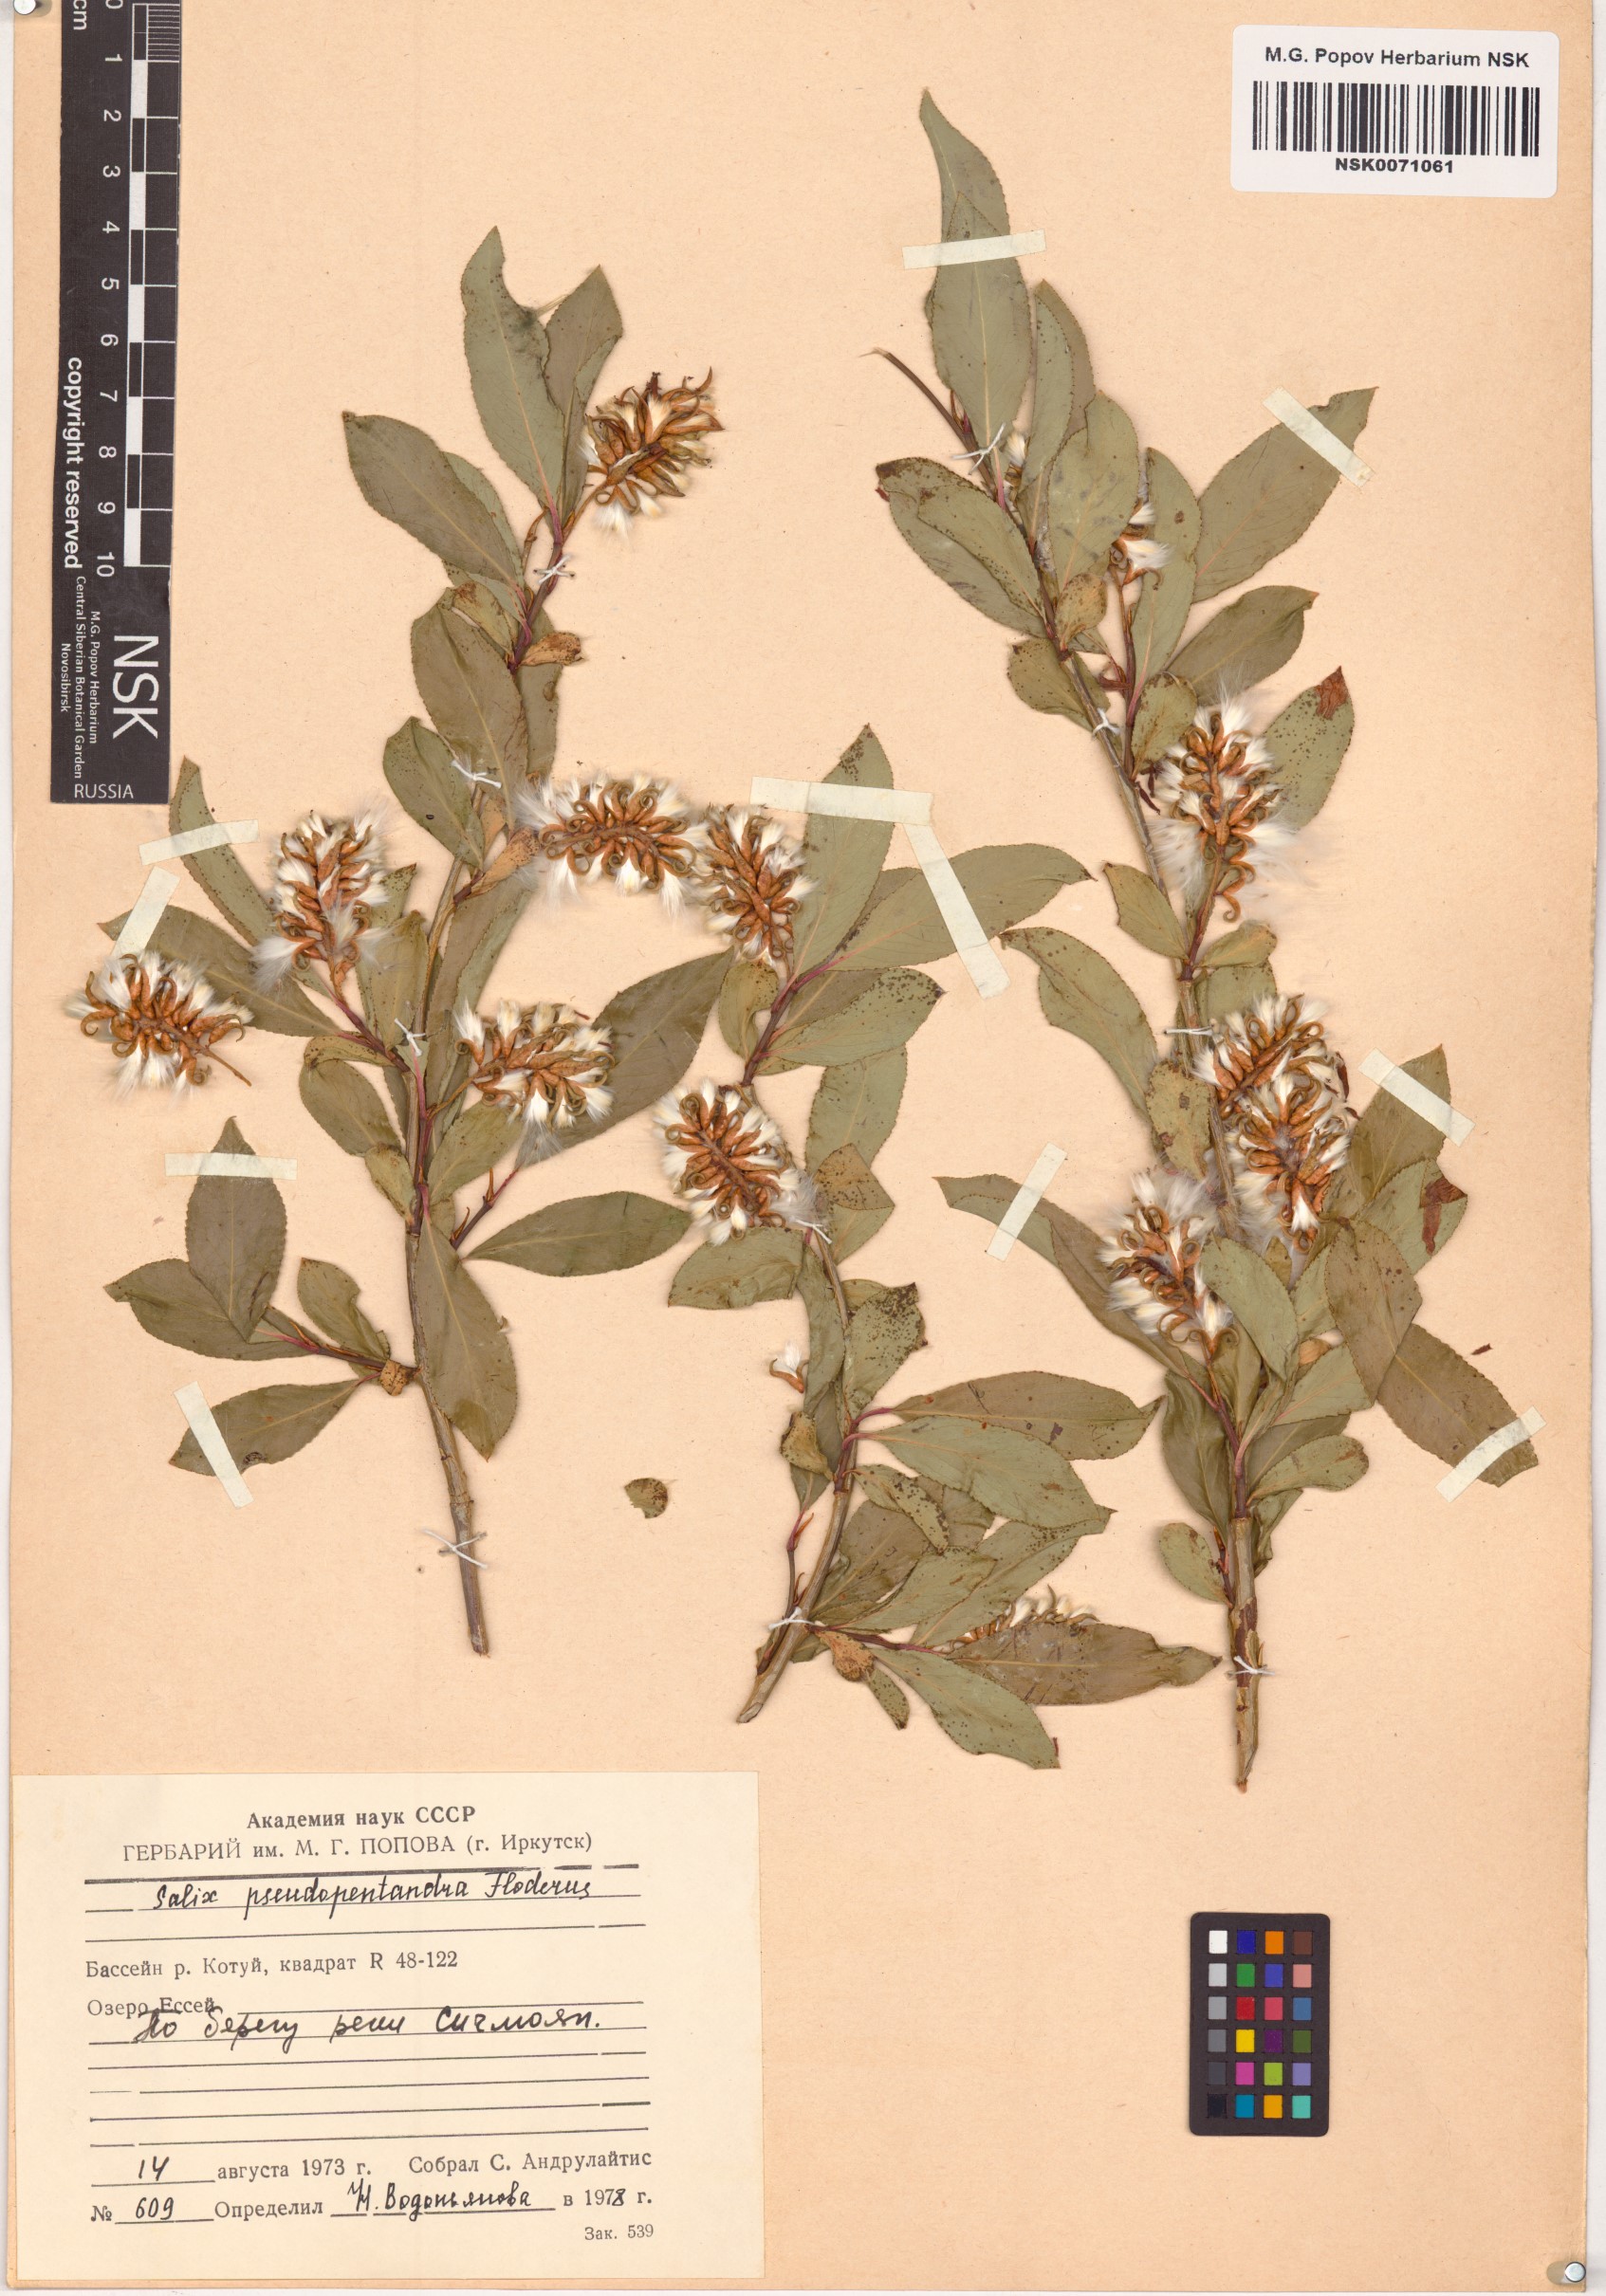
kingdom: Plantae
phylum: Tracheophyta
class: Magnoliopsida
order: Malpighiales
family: Salicaceae
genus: Salix
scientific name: Salix pseudopentandra
